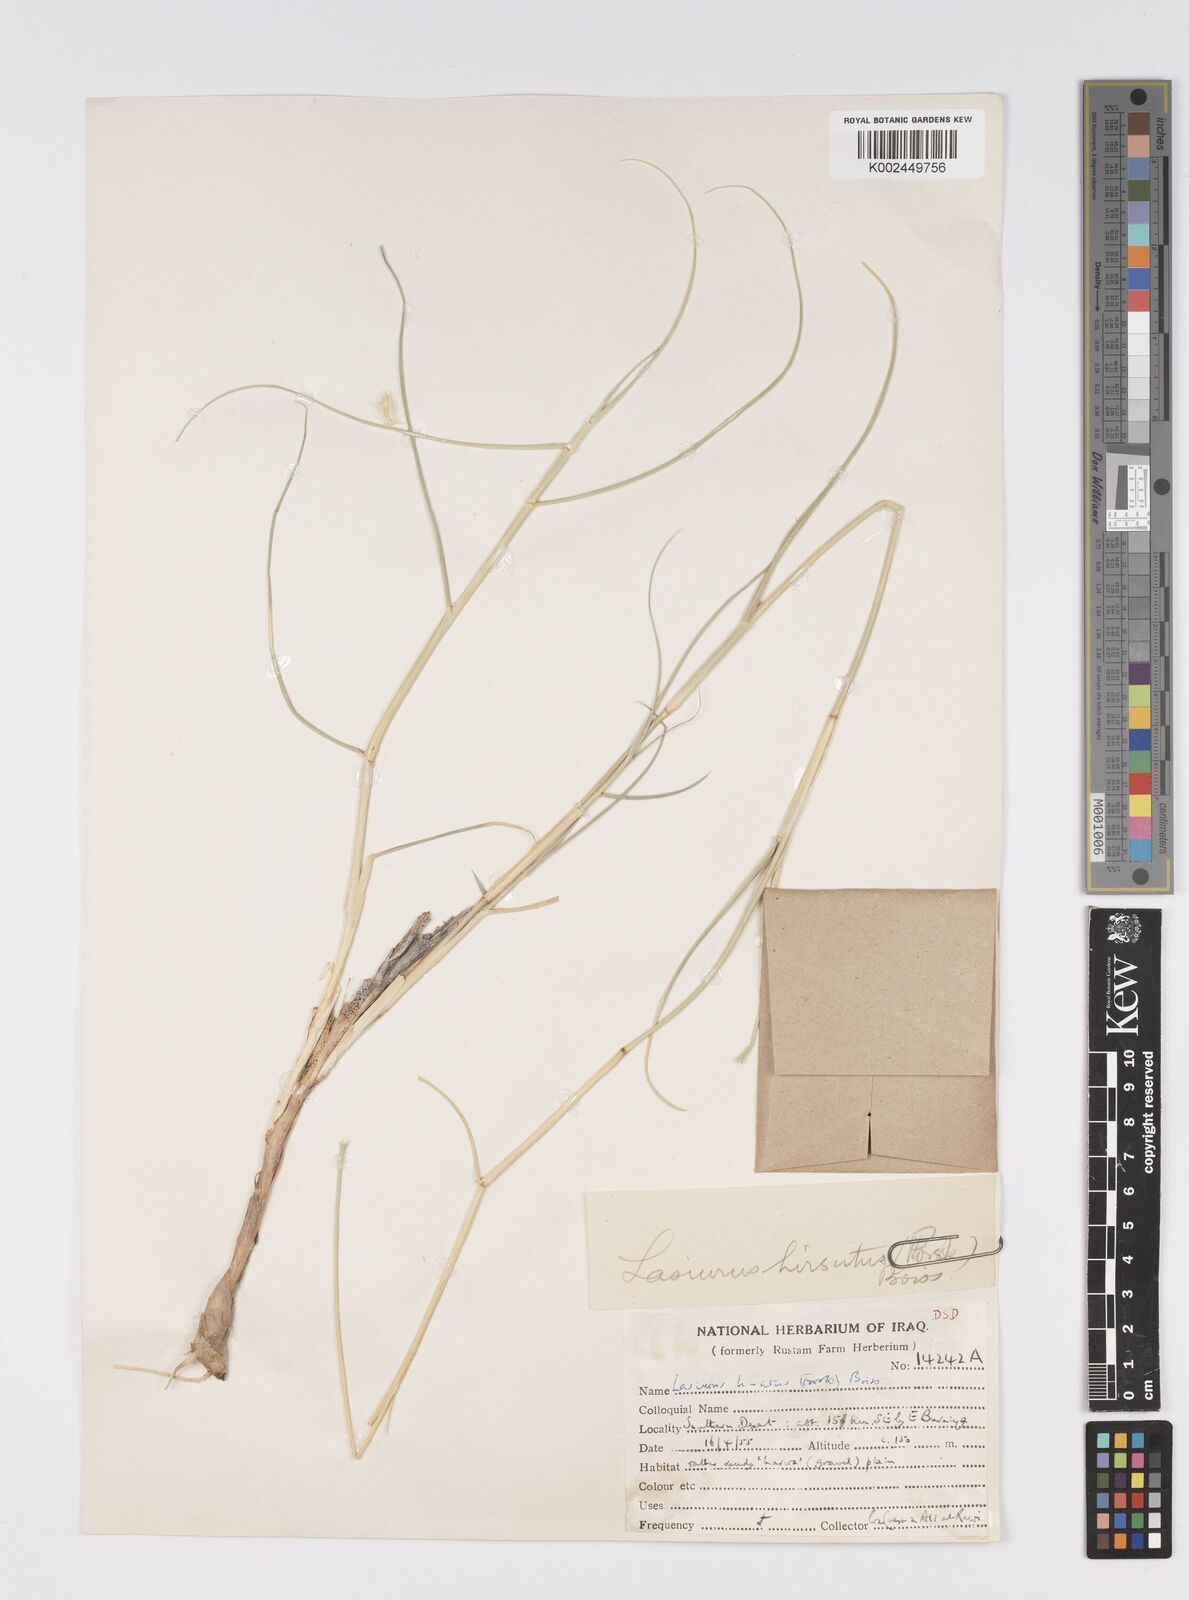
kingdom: Plantae
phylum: Tracheophyta
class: Liliopsida
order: Poales
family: Poaceae
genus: Lasiurus
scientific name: Lasiurus scindicus
